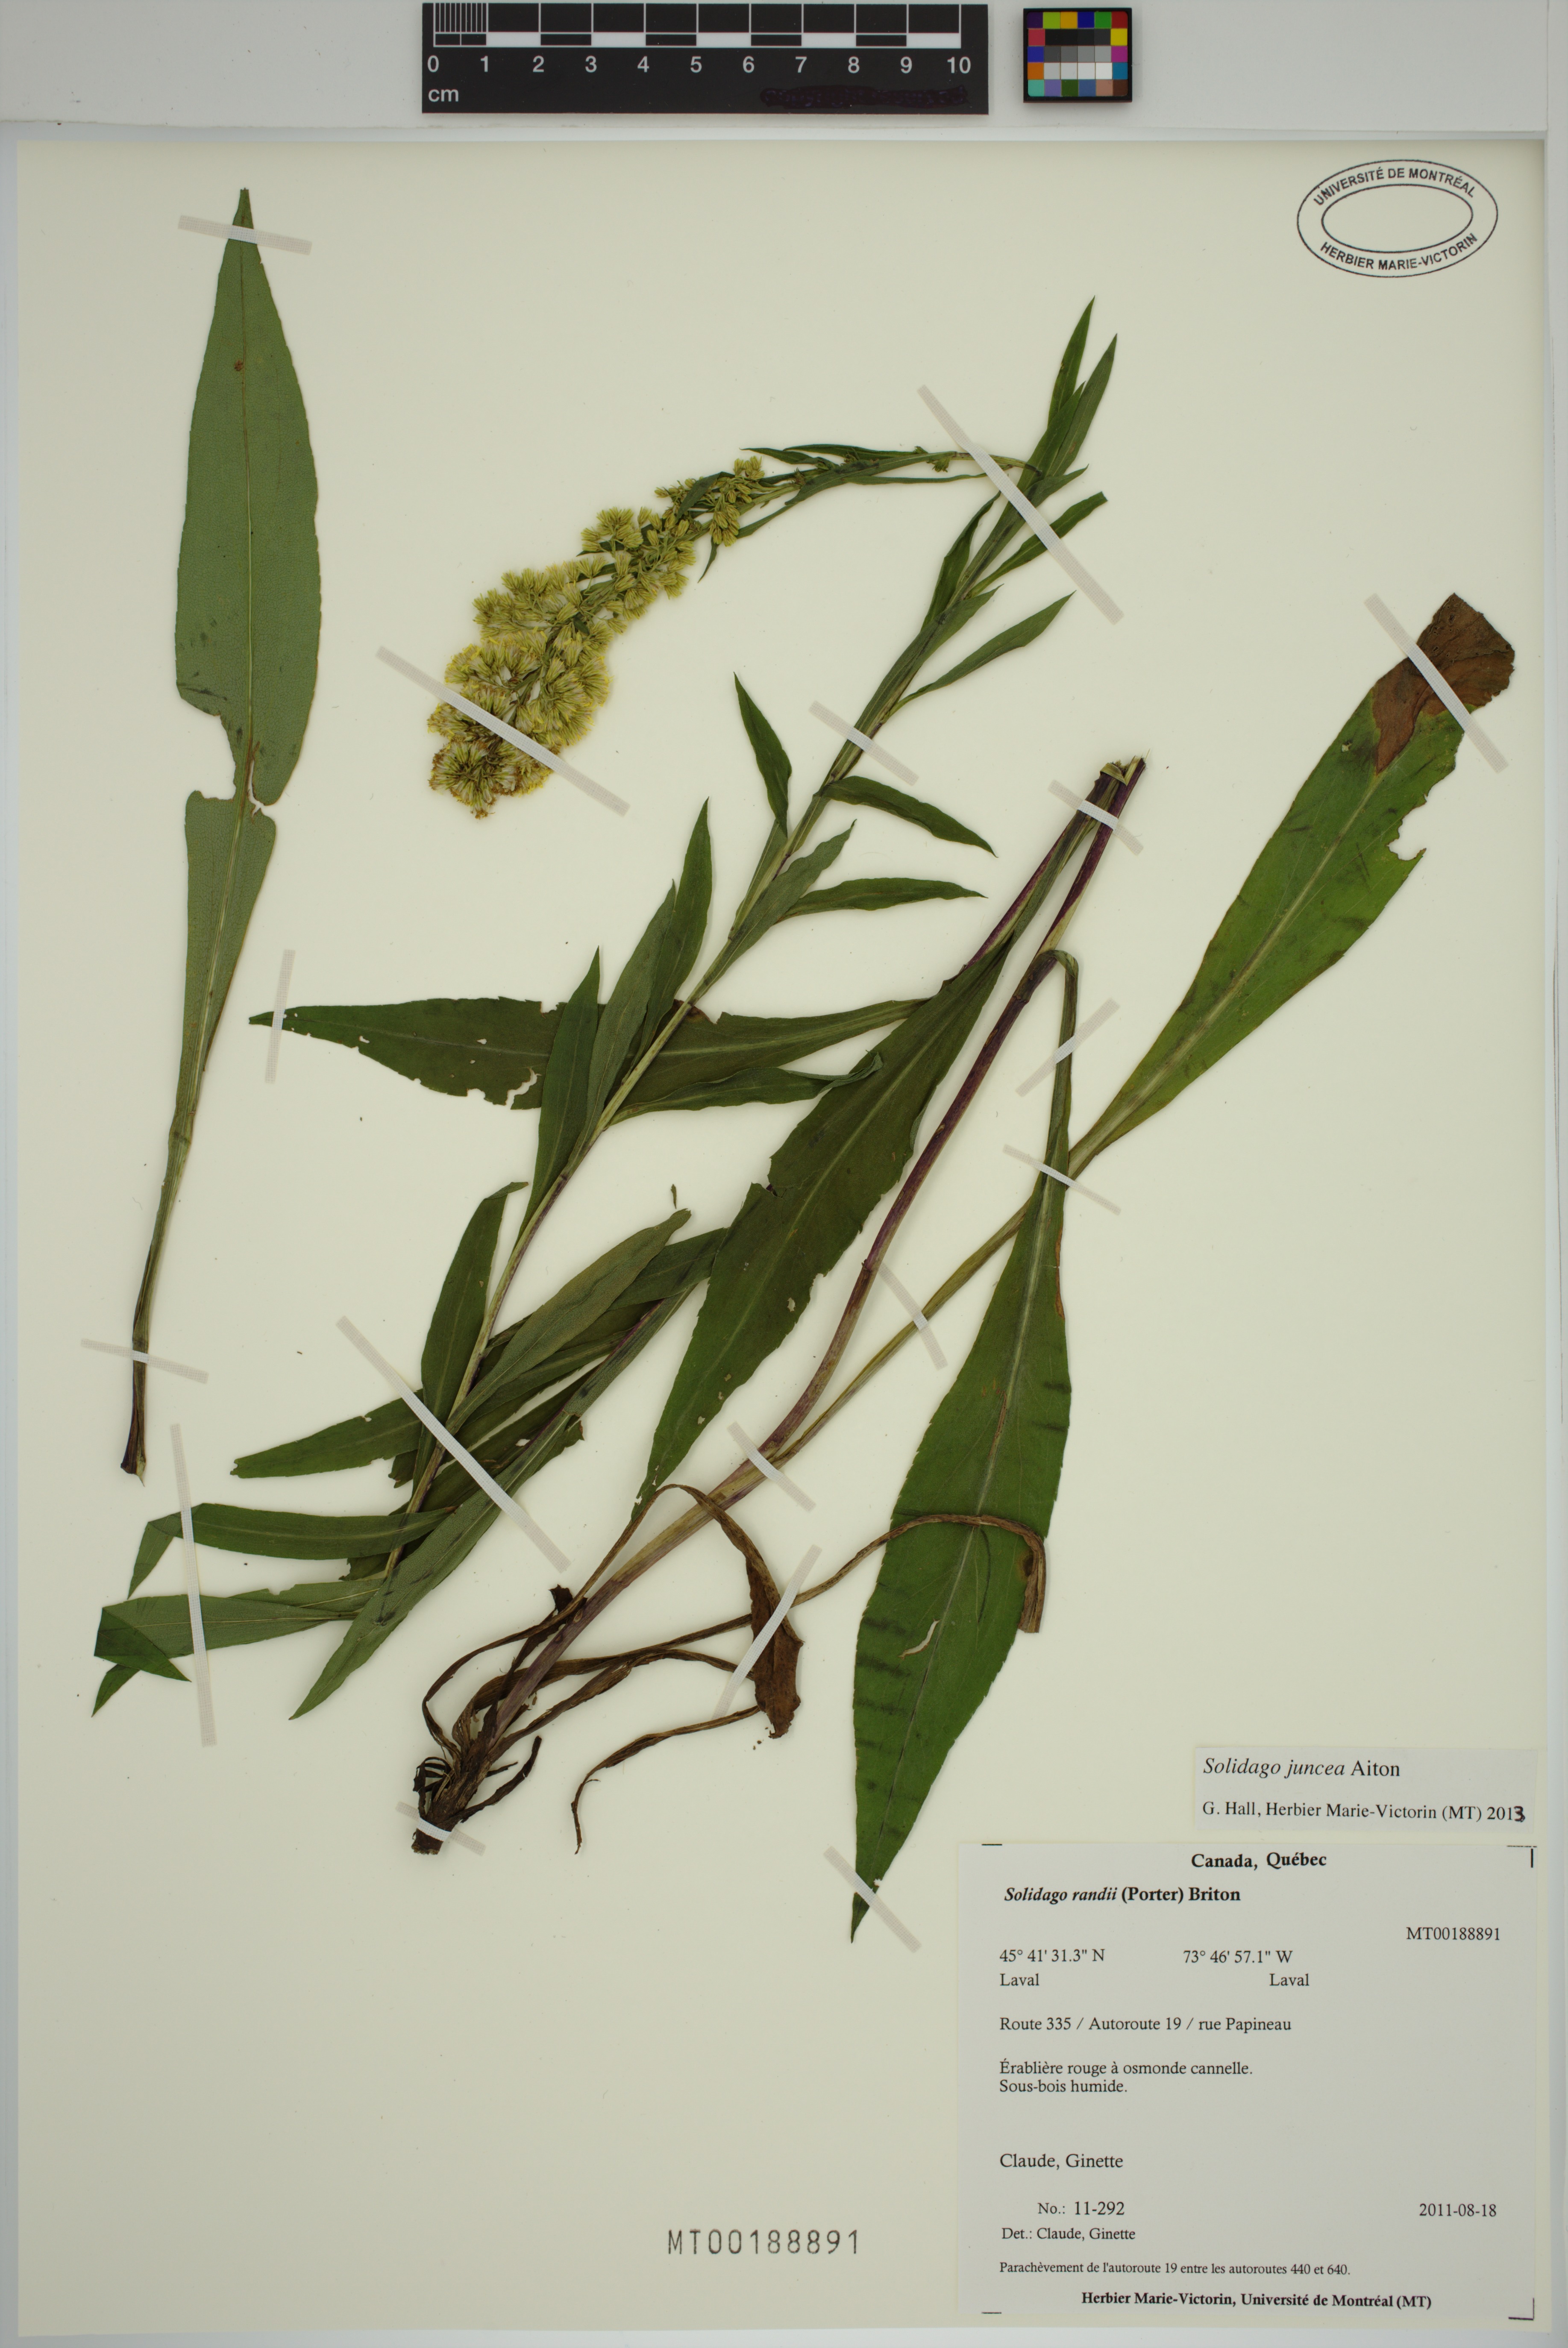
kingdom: Plantae
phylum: Tracheophyta
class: Magnoliopsida
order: Asterales
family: Asteraceae
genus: Solidago
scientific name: Solidago juncea
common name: Early goldenrod
